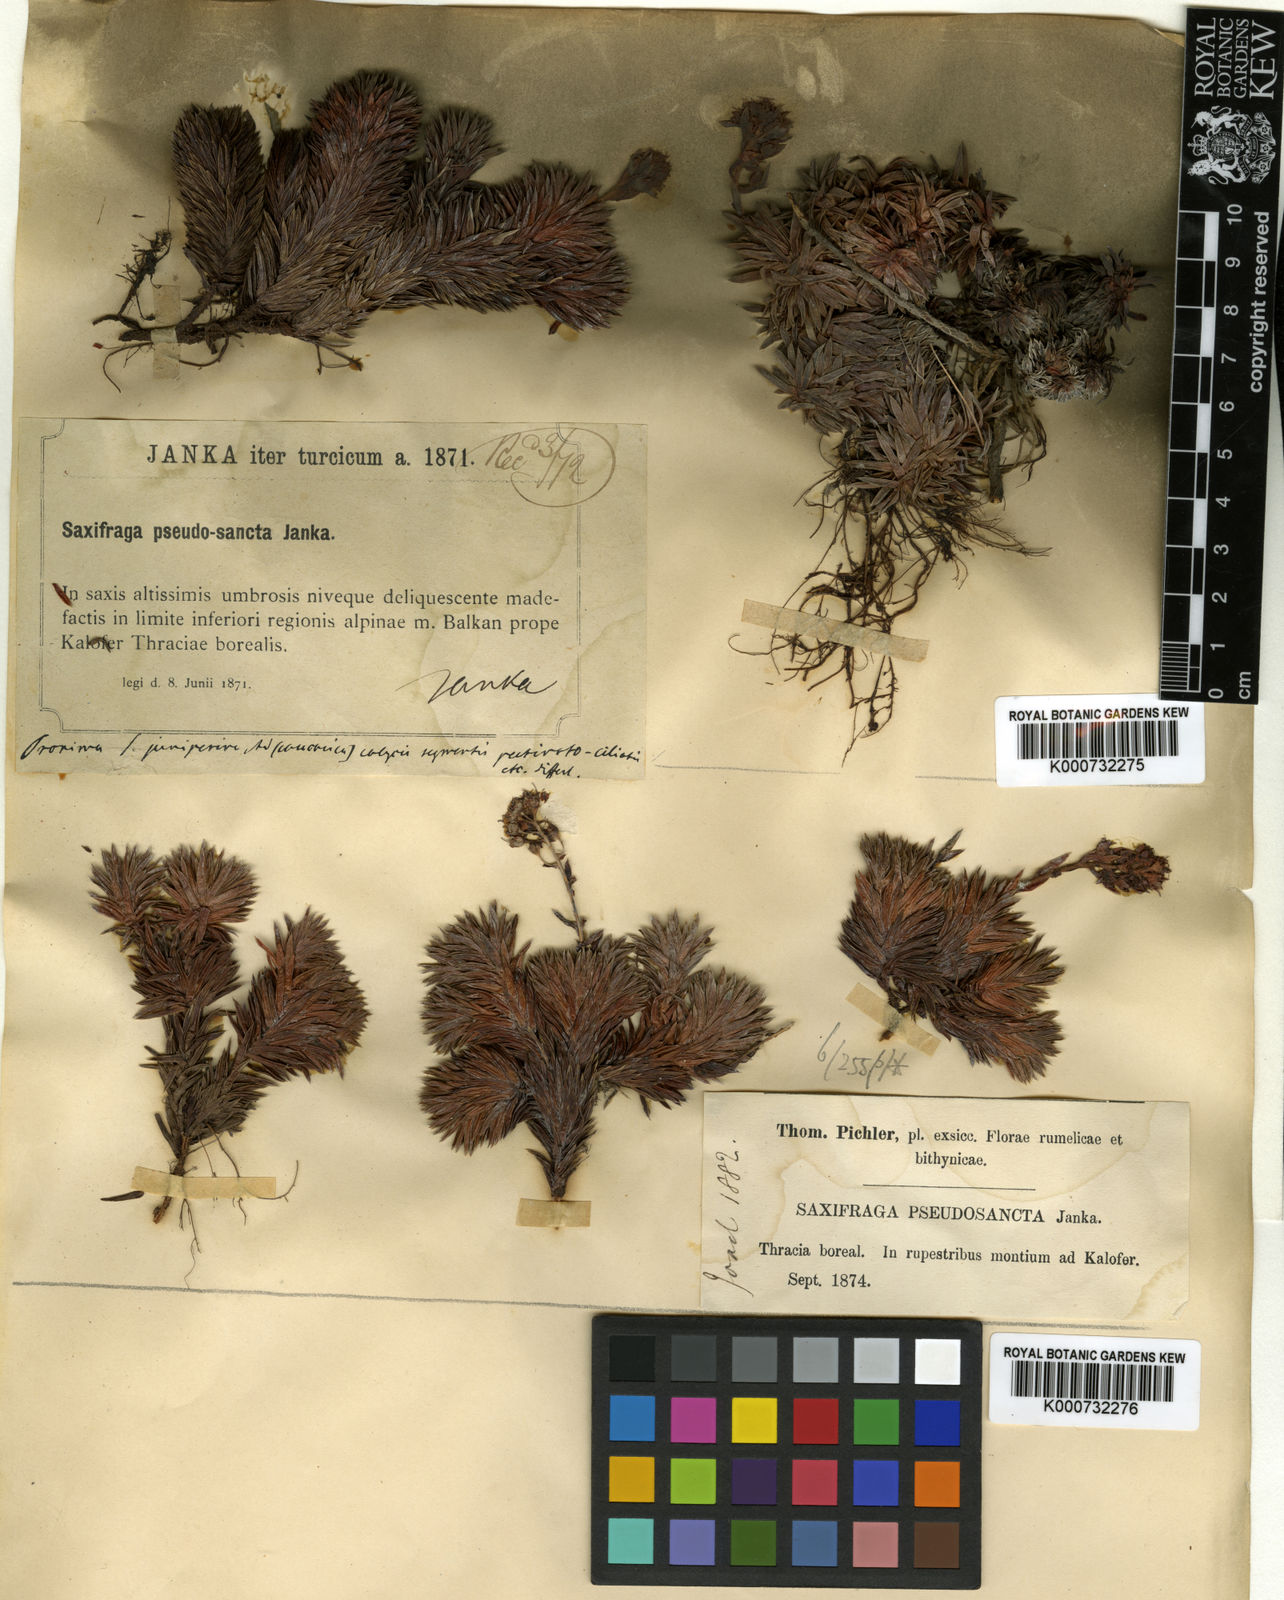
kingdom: Plantae
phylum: Tracheophyta
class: Magnoliopsida
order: Saxifragales
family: Saxifragaceae
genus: Saxifraga
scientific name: Saxifraga
